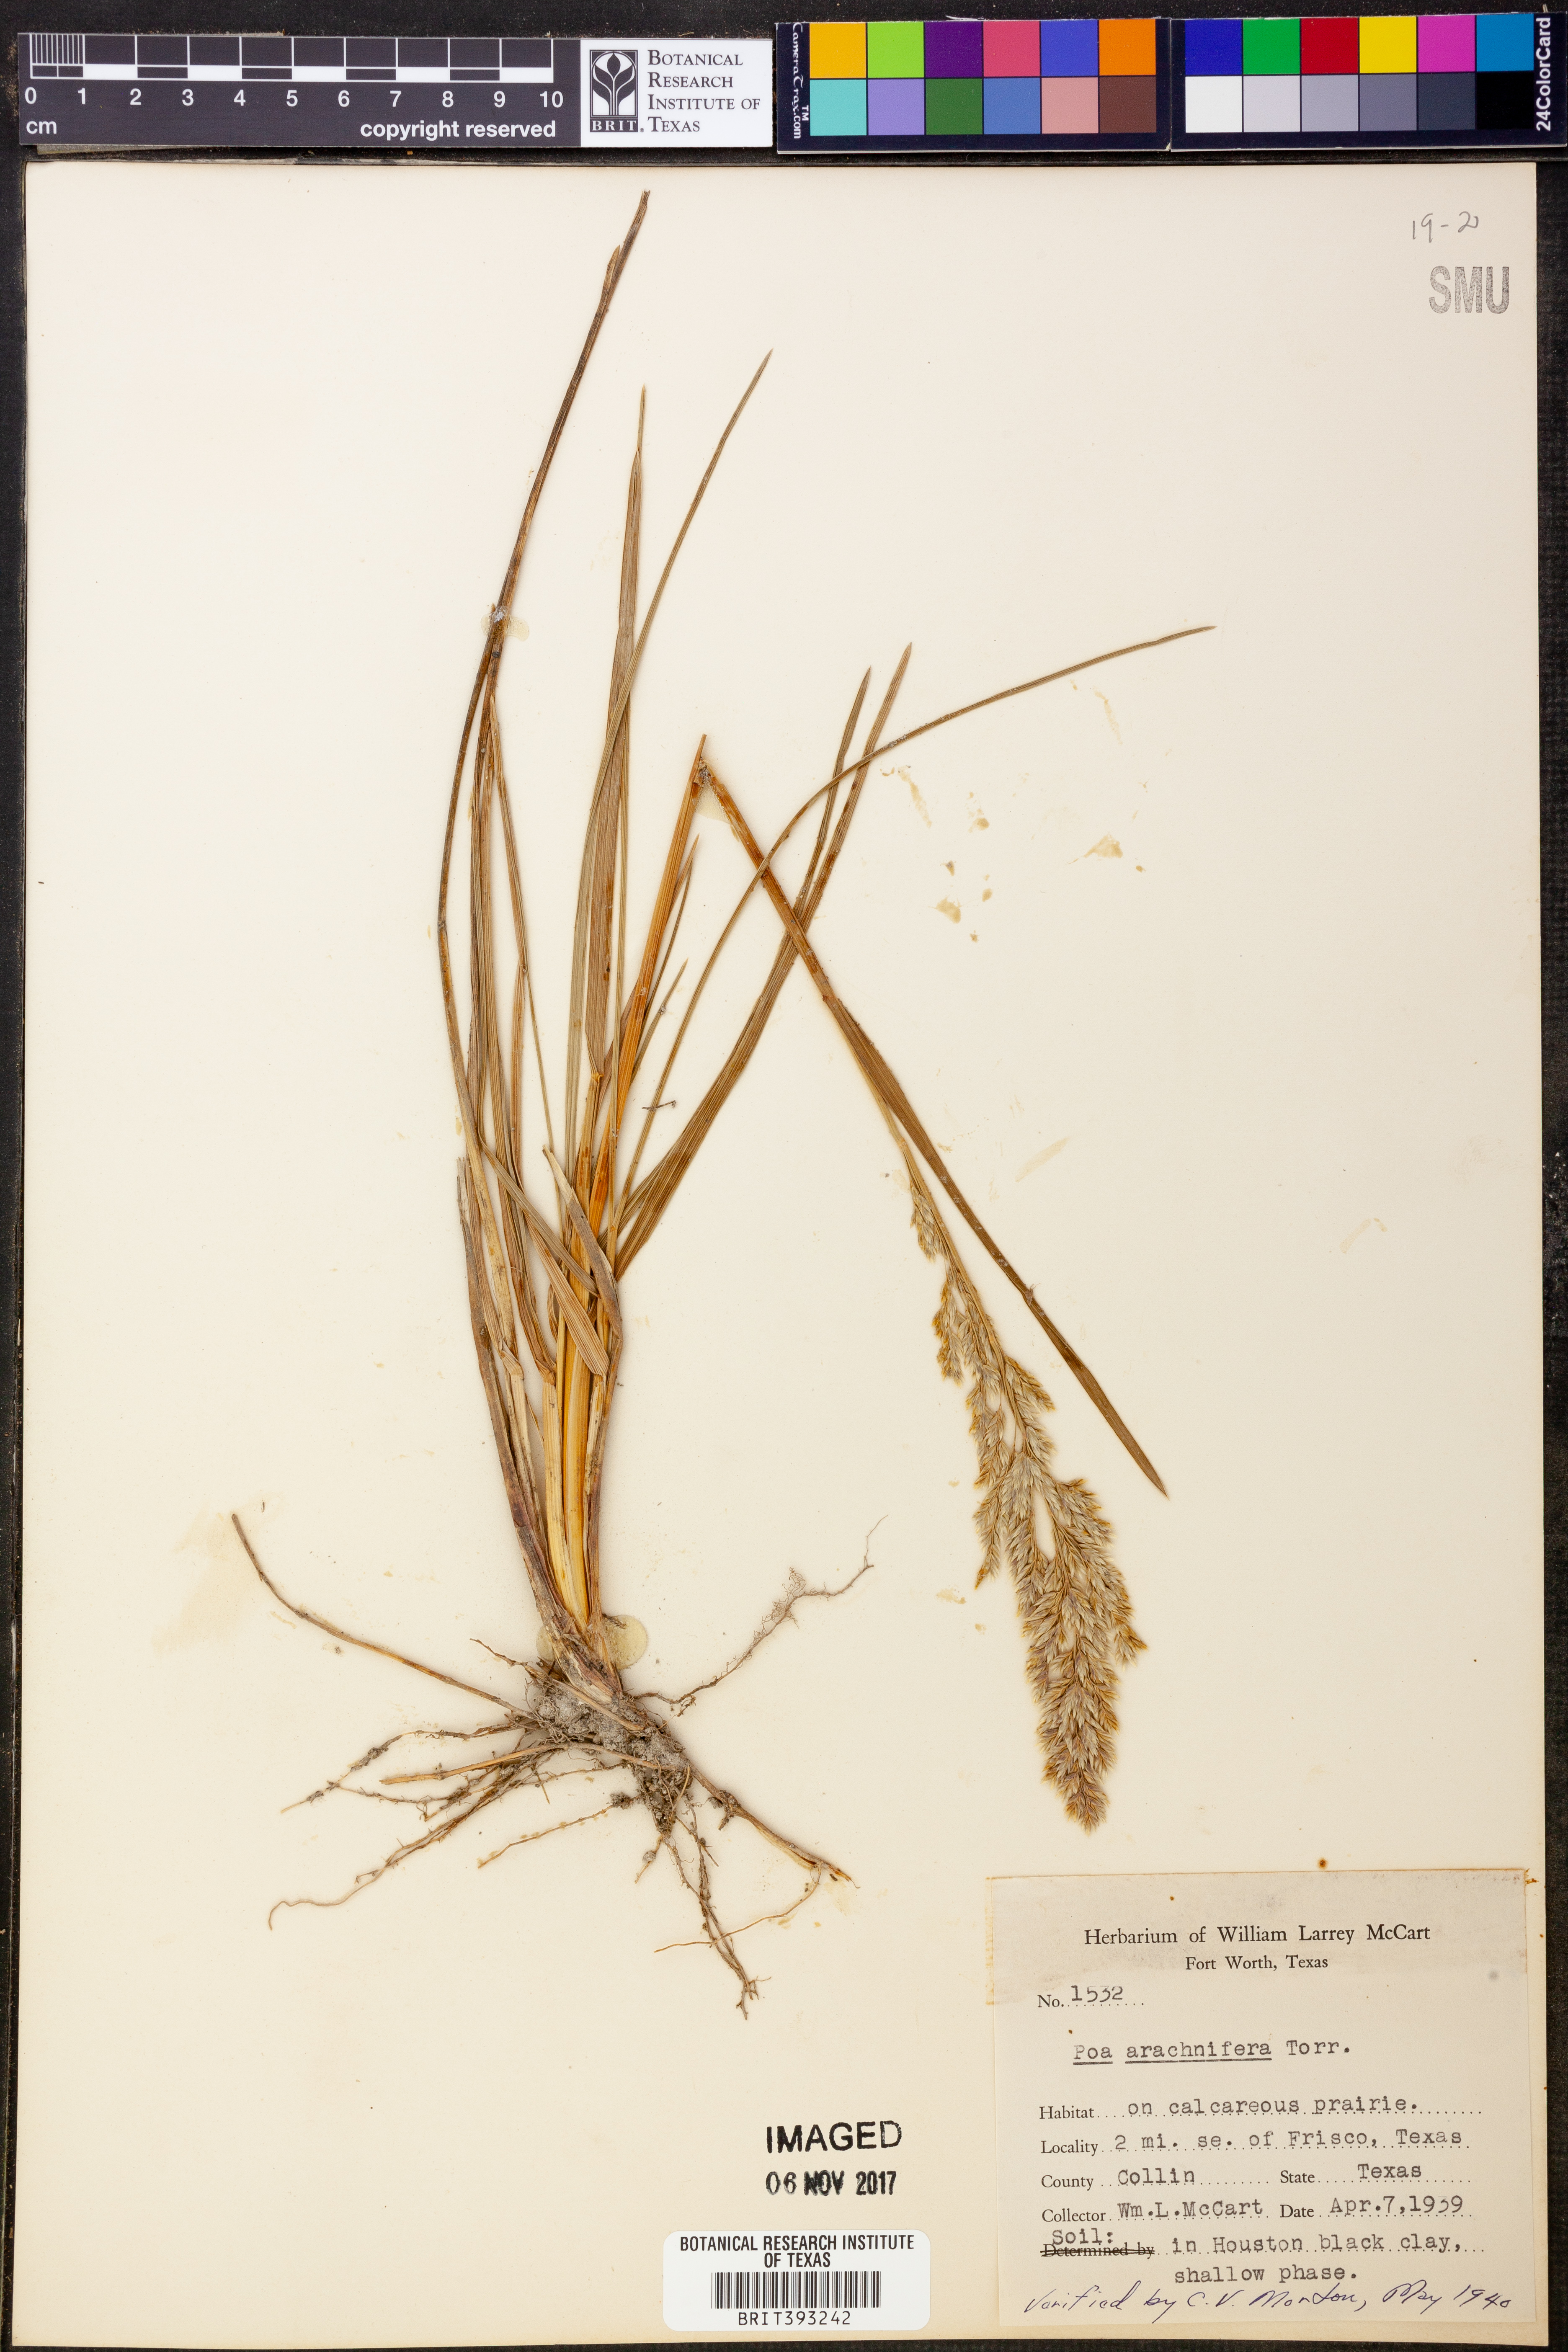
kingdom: Plantae
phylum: Tracheophyta
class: Liliopsida
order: Poales
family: Poaceae
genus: Poa
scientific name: Poa arachnifera
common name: Texas bluegrass
